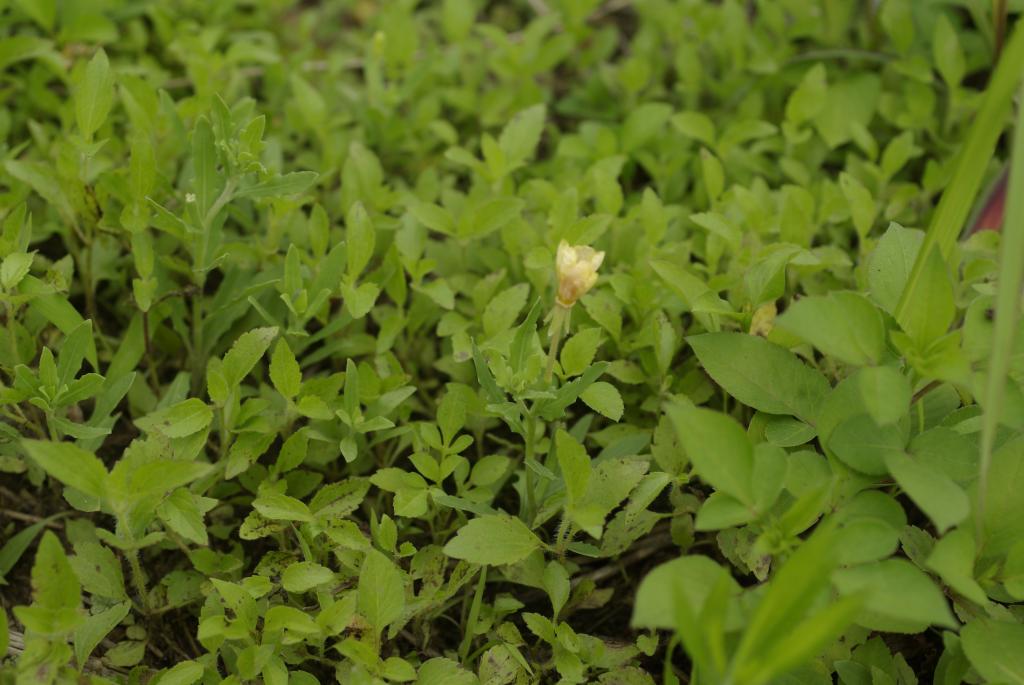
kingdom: Plantae
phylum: Tracheophyta
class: Magnoliopsida
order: Myrtales
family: Onagraceae
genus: Oenothera
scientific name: Oenothera laciniata
